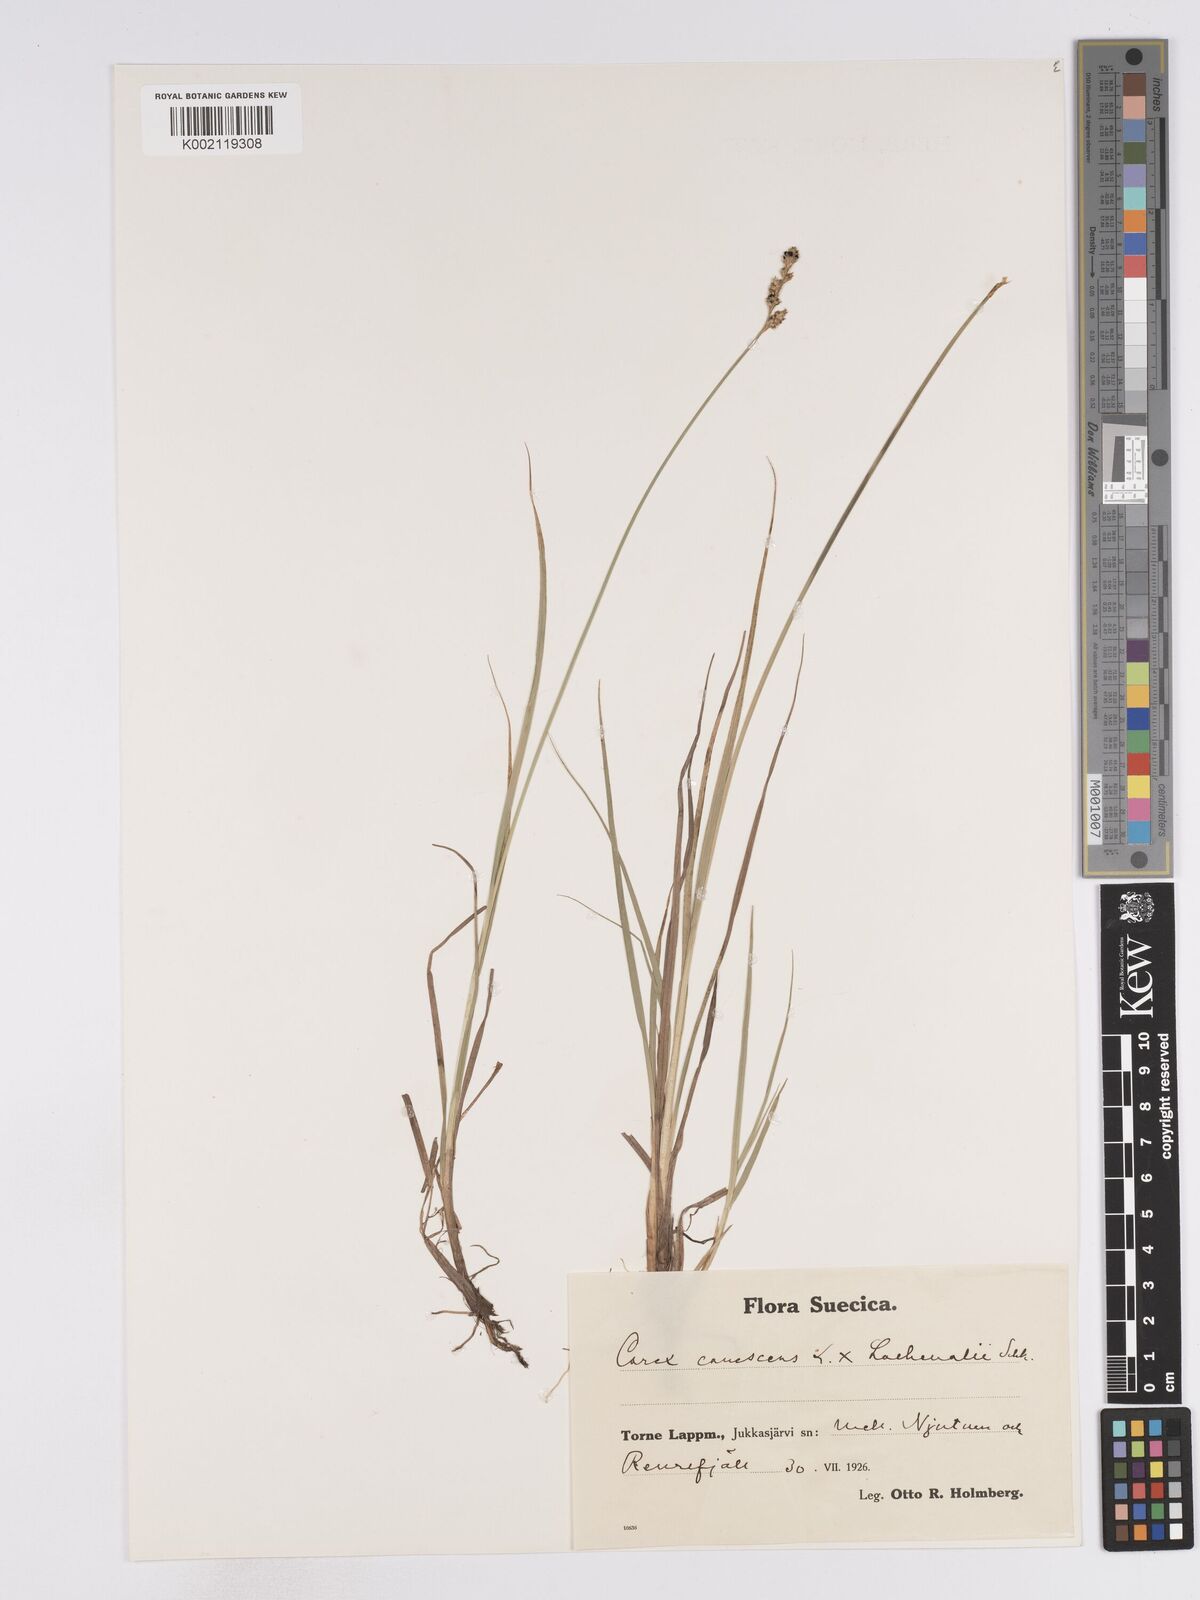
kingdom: Plantae
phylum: Tracheophyta
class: Liliopsida
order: Poales
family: Cyperaceae
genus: Carex
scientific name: Carex
